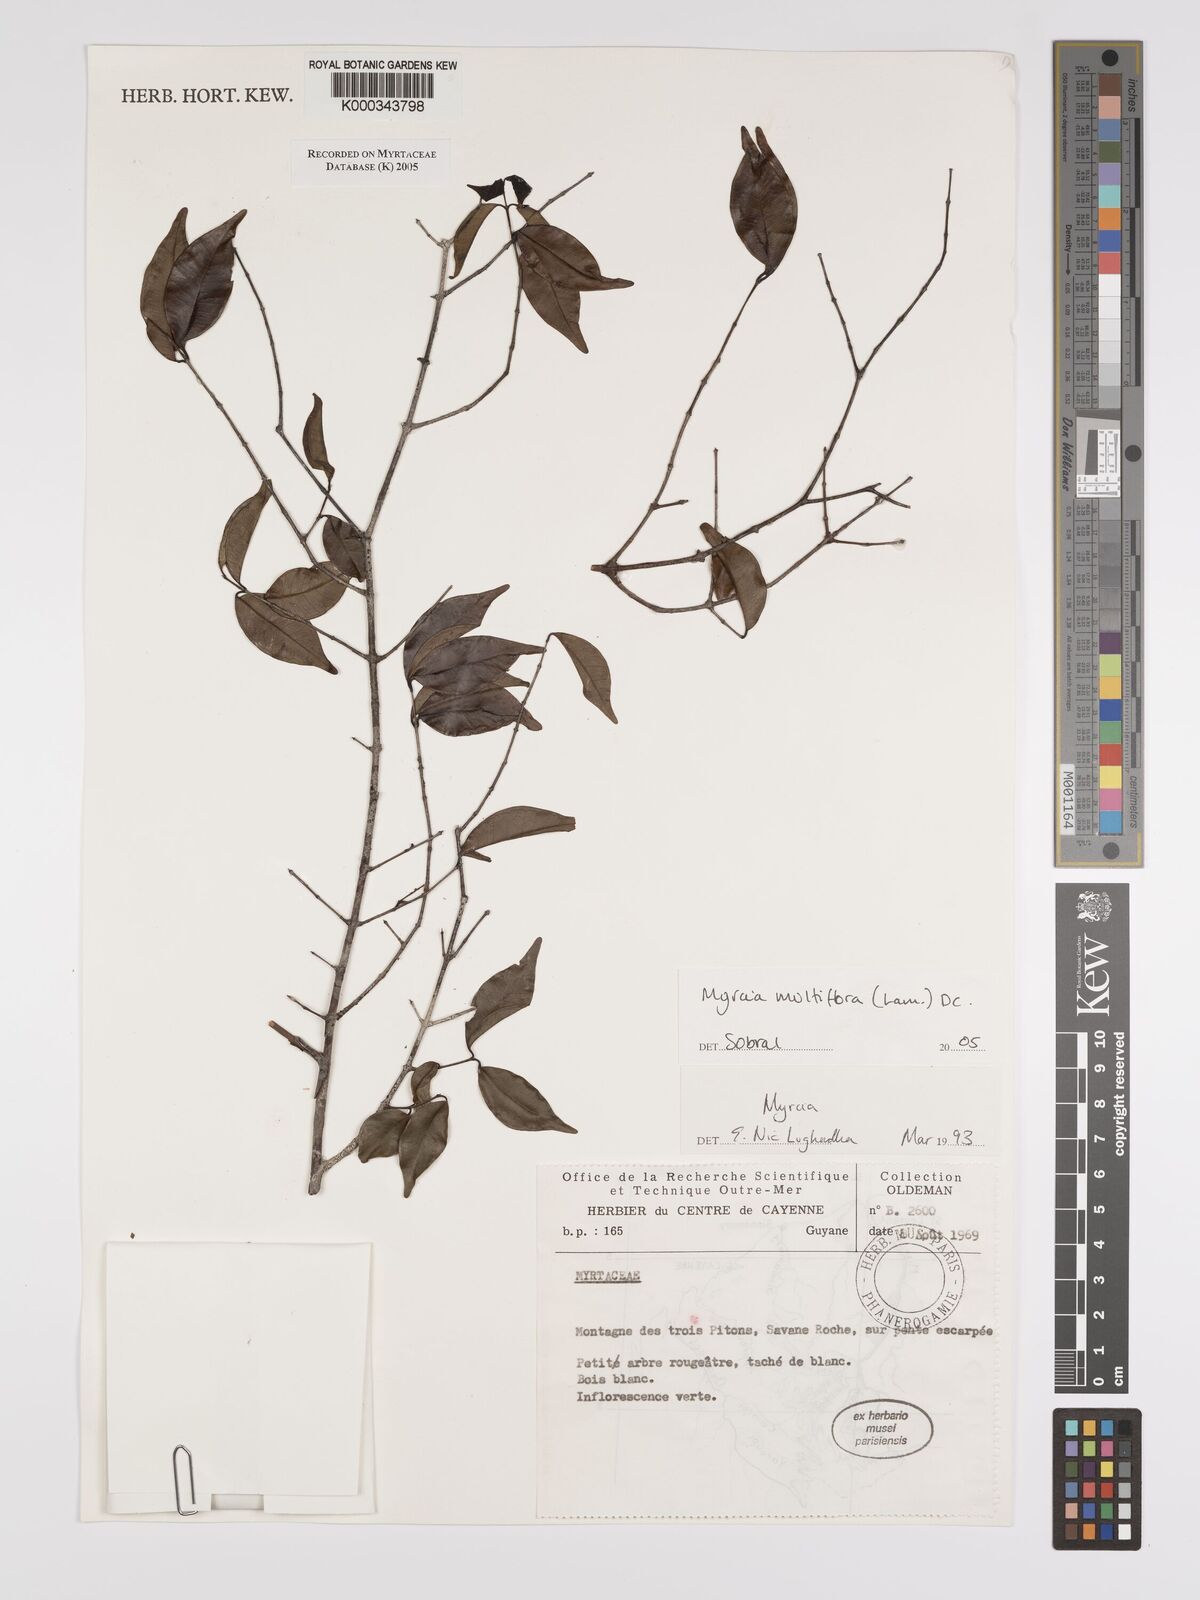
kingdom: Plantae
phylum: Tracheophyta
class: Magnoliopsida
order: Myrtales
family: Myrtaceae
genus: Myrcia
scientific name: Myrcia multiflora
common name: Pedra hume
